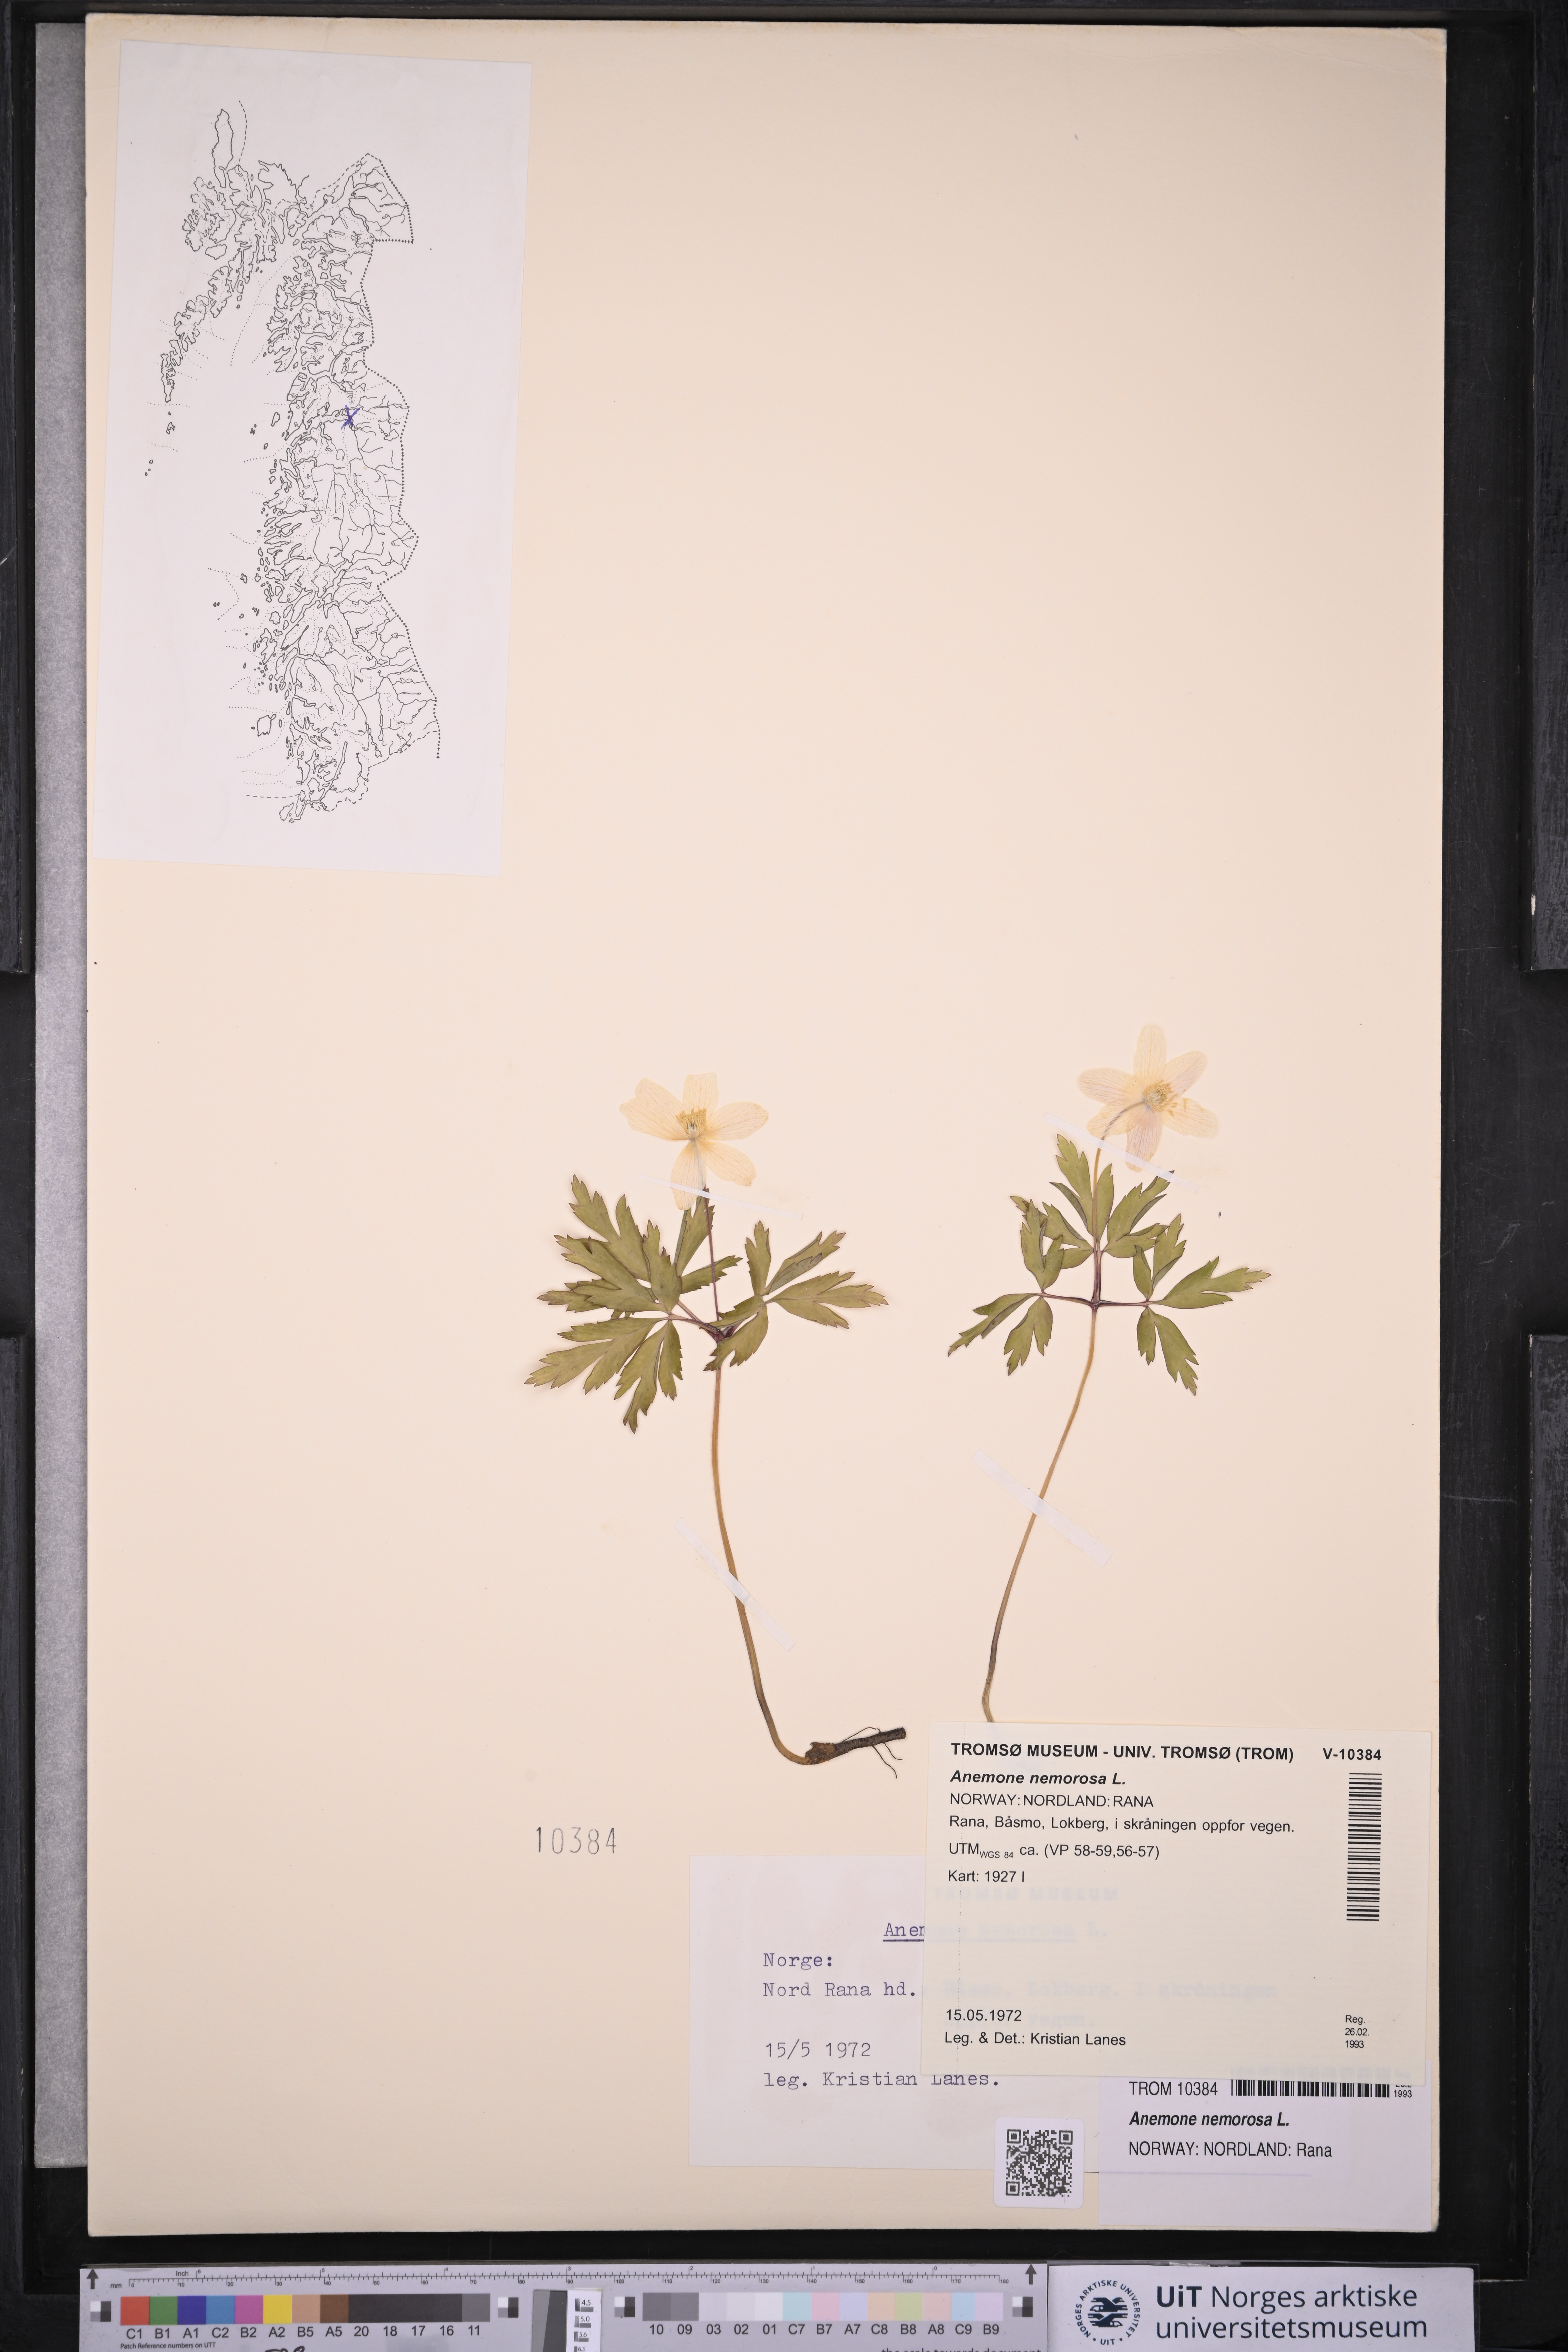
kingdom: Plantae
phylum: Tracheophyta
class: Magnoliopsida
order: Ranunculales
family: Ranunculaceae
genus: Anemone
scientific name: Anemone nemorosa
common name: Wood anemone
